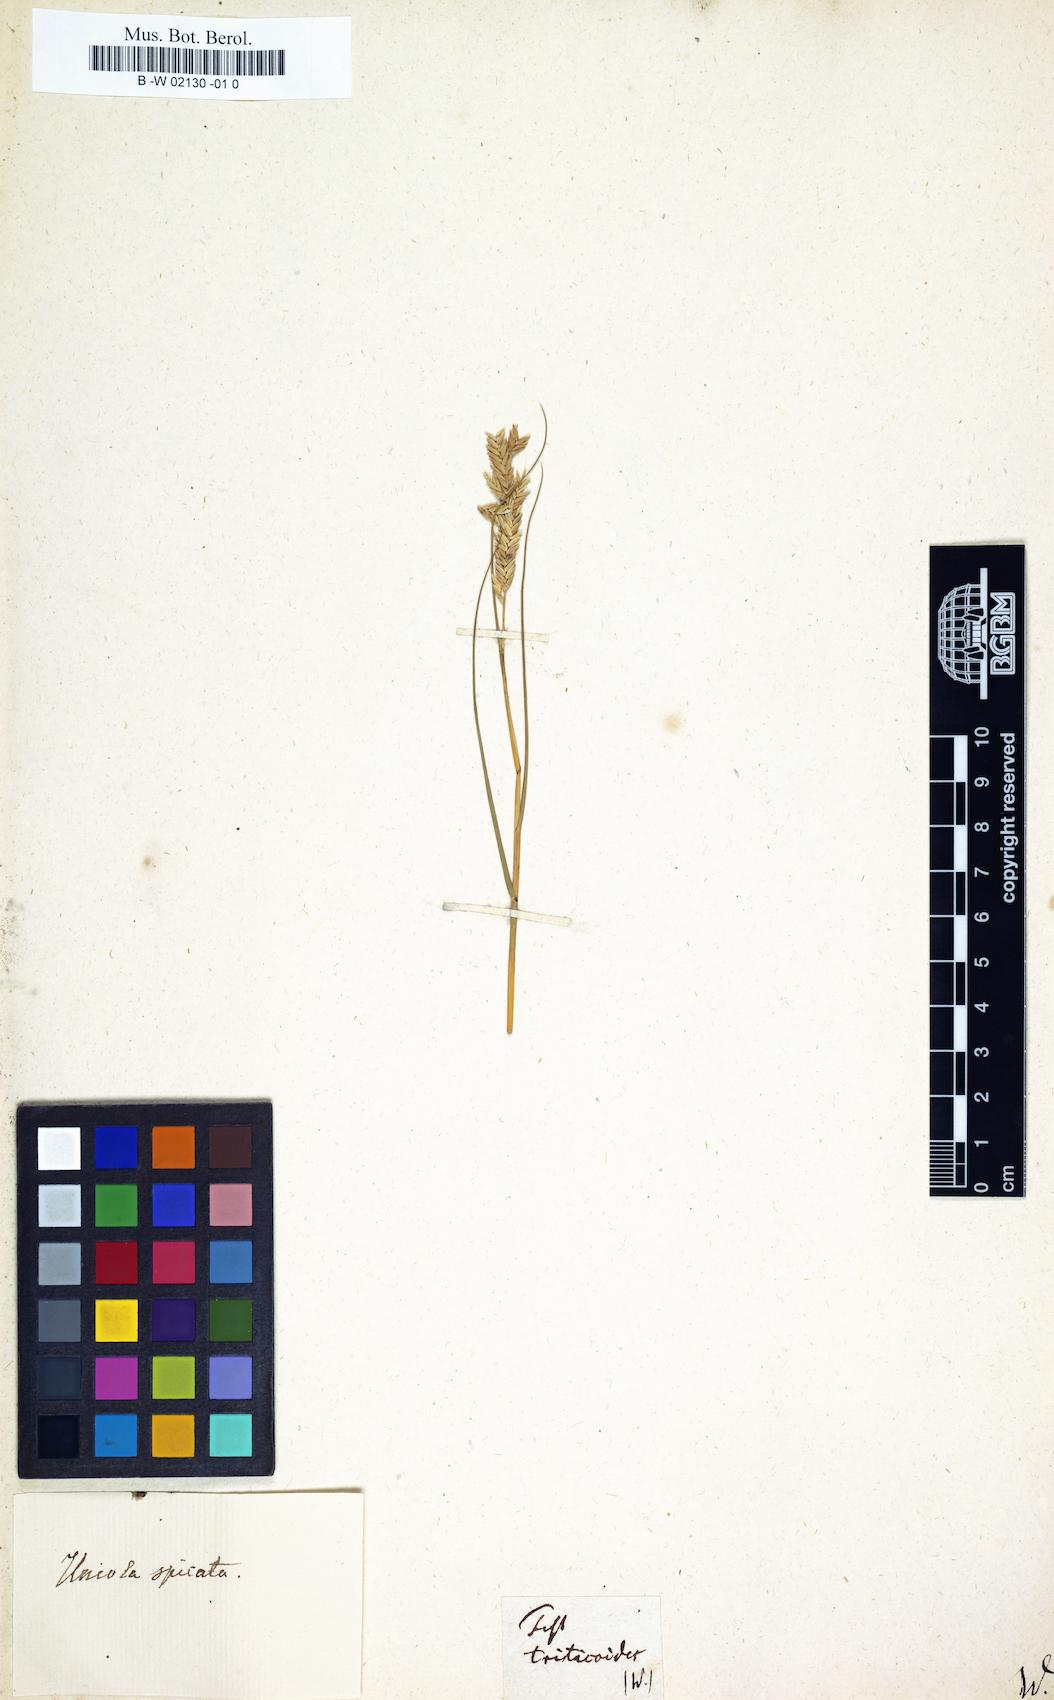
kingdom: Plantae
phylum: Tracheophyta
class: Liliopsida
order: Poales
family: Poaceae
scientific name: Poaceae
